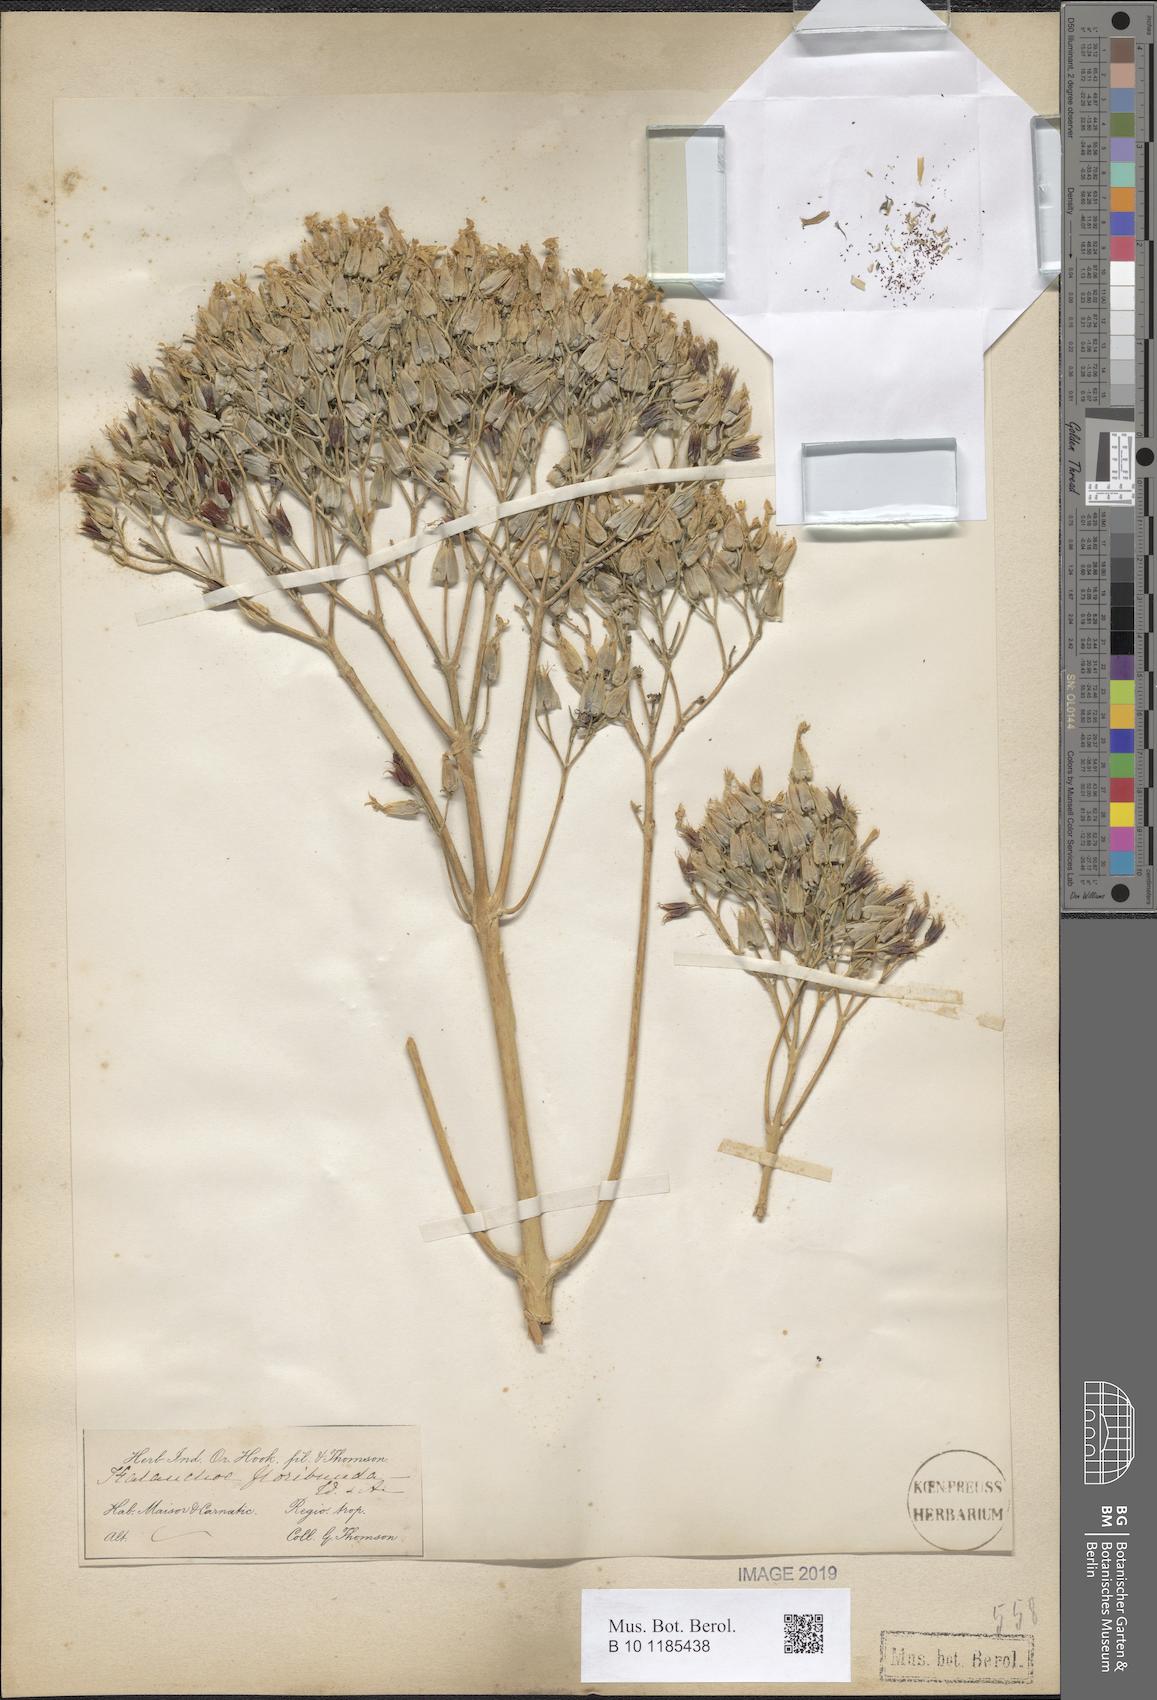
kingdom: Plantae
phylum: Tracheophyta
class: Magnoliopsida
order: Saxifragales
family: Crassulaceae
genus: Kalanchoe
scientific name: Kalanchoe floribunda
